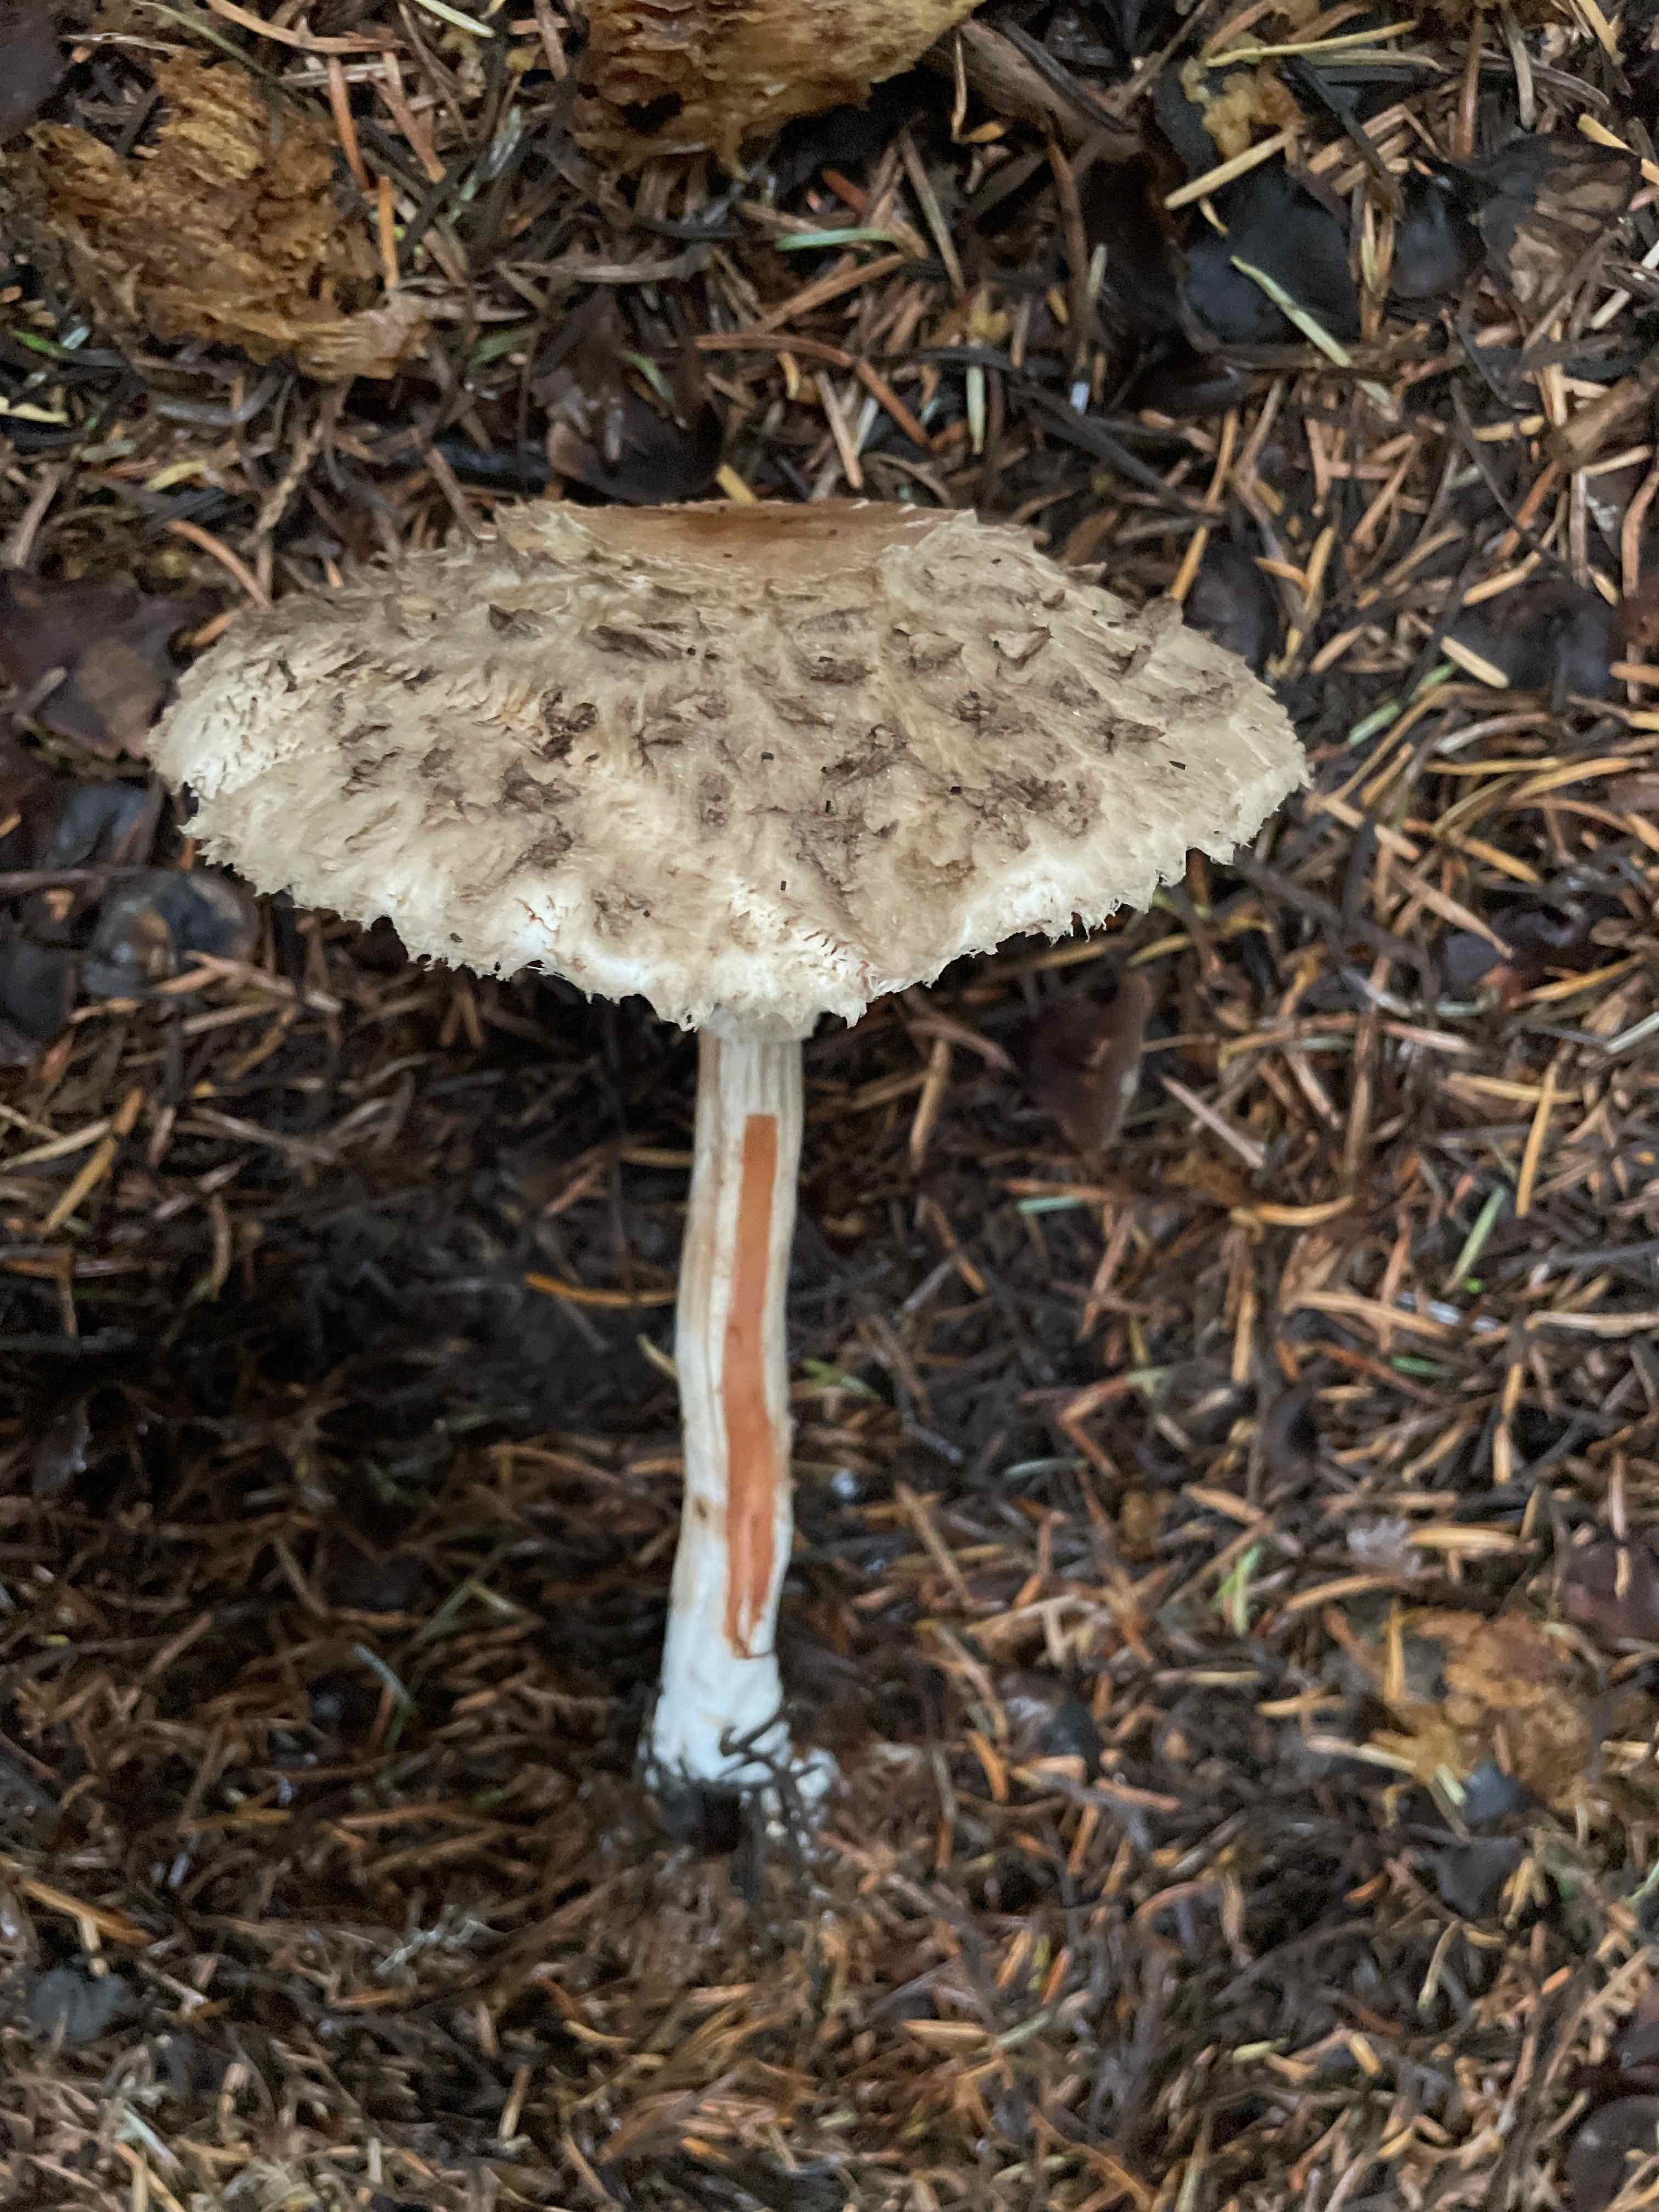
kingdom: Fungi
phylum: Basidiomycota
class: Agaricomycetes
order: Agaricales
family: Agaricaceae
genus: Chlorophyllum
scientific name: Chlorophyllum olivieri
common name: almindelig rabarberhat
